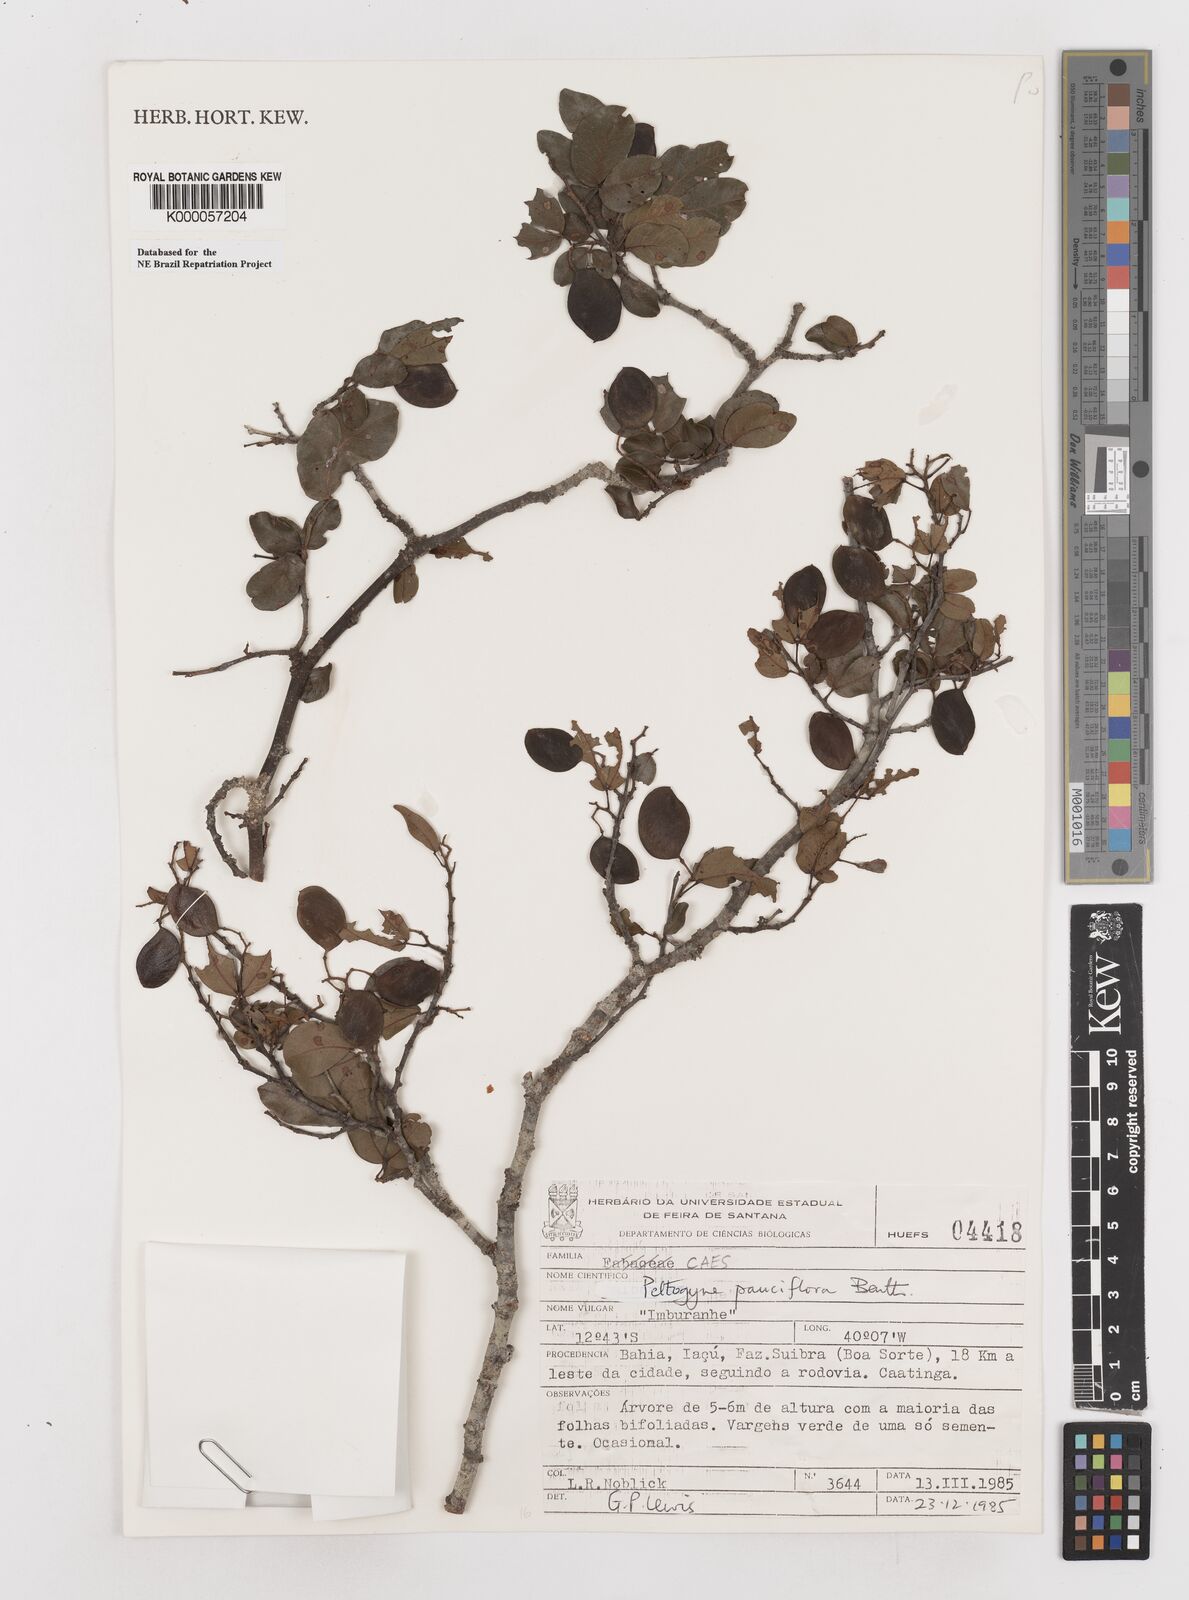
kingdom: Plantae
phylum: Tracheophyta
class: Magnoliopsida
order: Fabales
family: Fabaceae
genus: Peltogyne
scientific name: Peltogyne pauciflora
